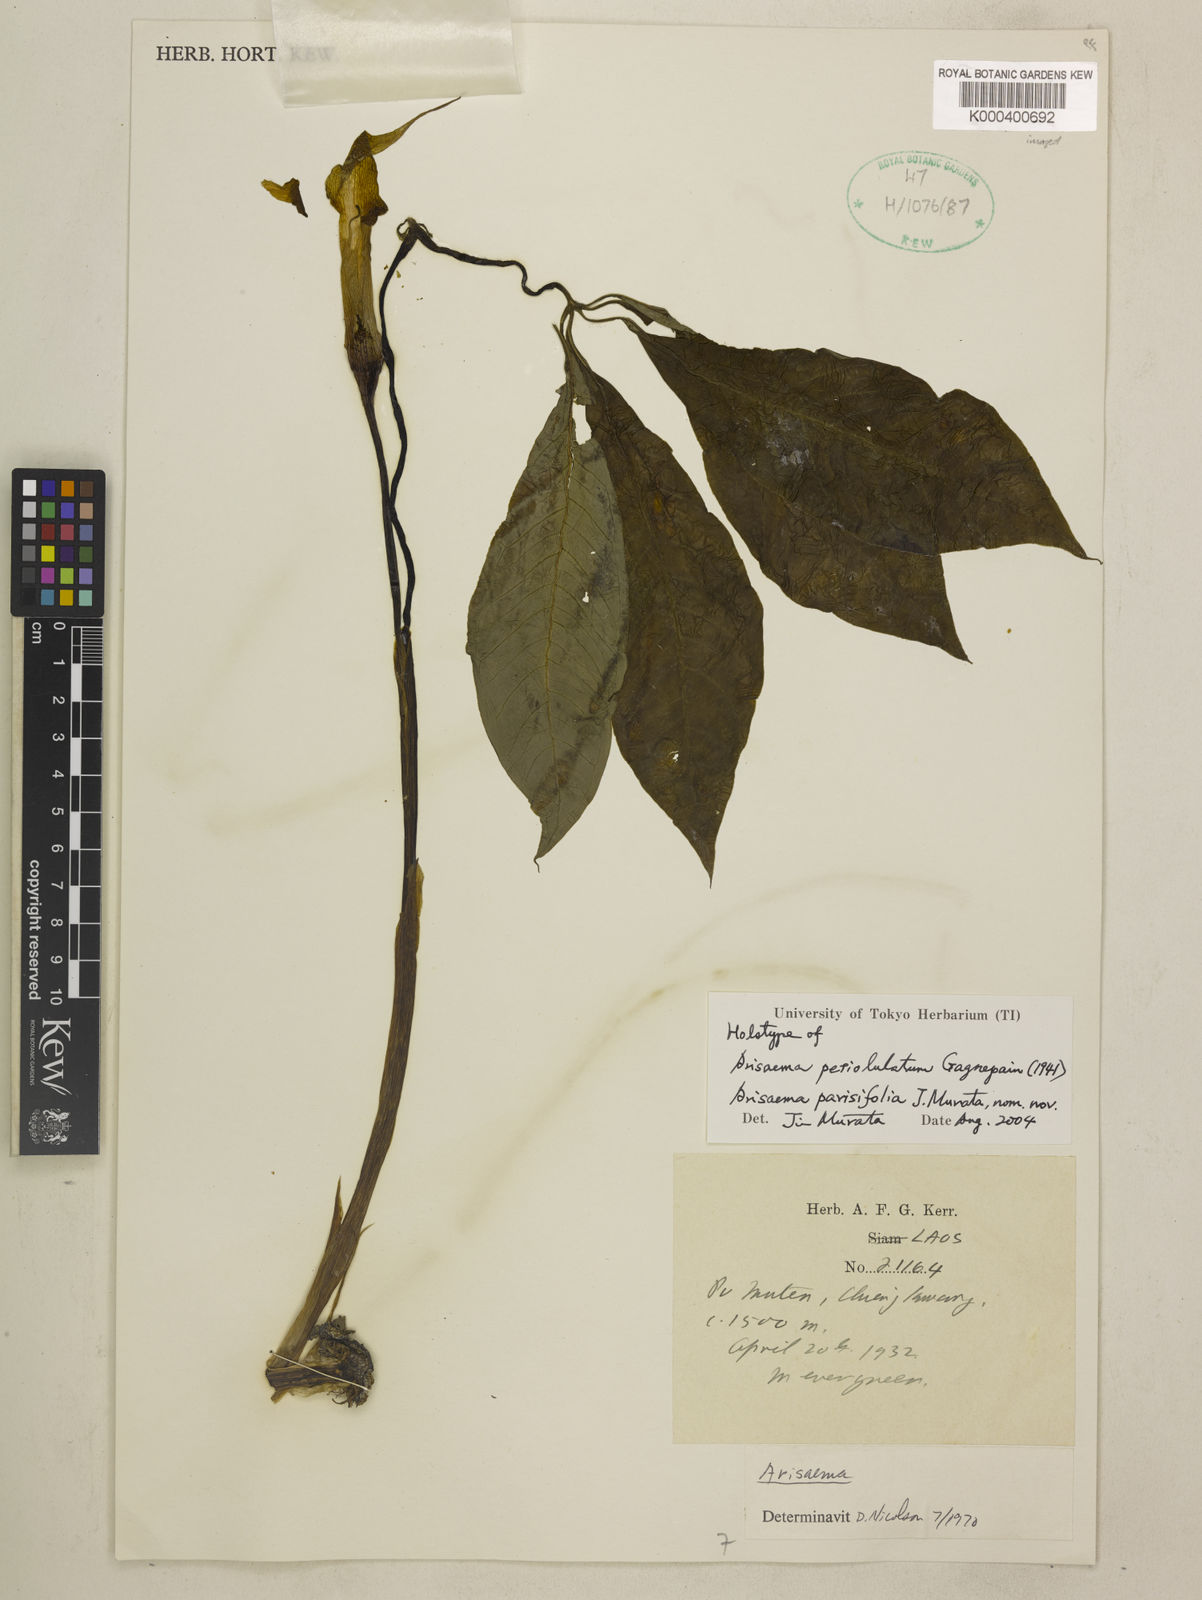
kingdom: Plantae
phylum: Tracheophyta
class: Liliopsida
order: Alismatales
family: Araceae
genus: Arisaema
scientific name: Arisaema parisifolium
